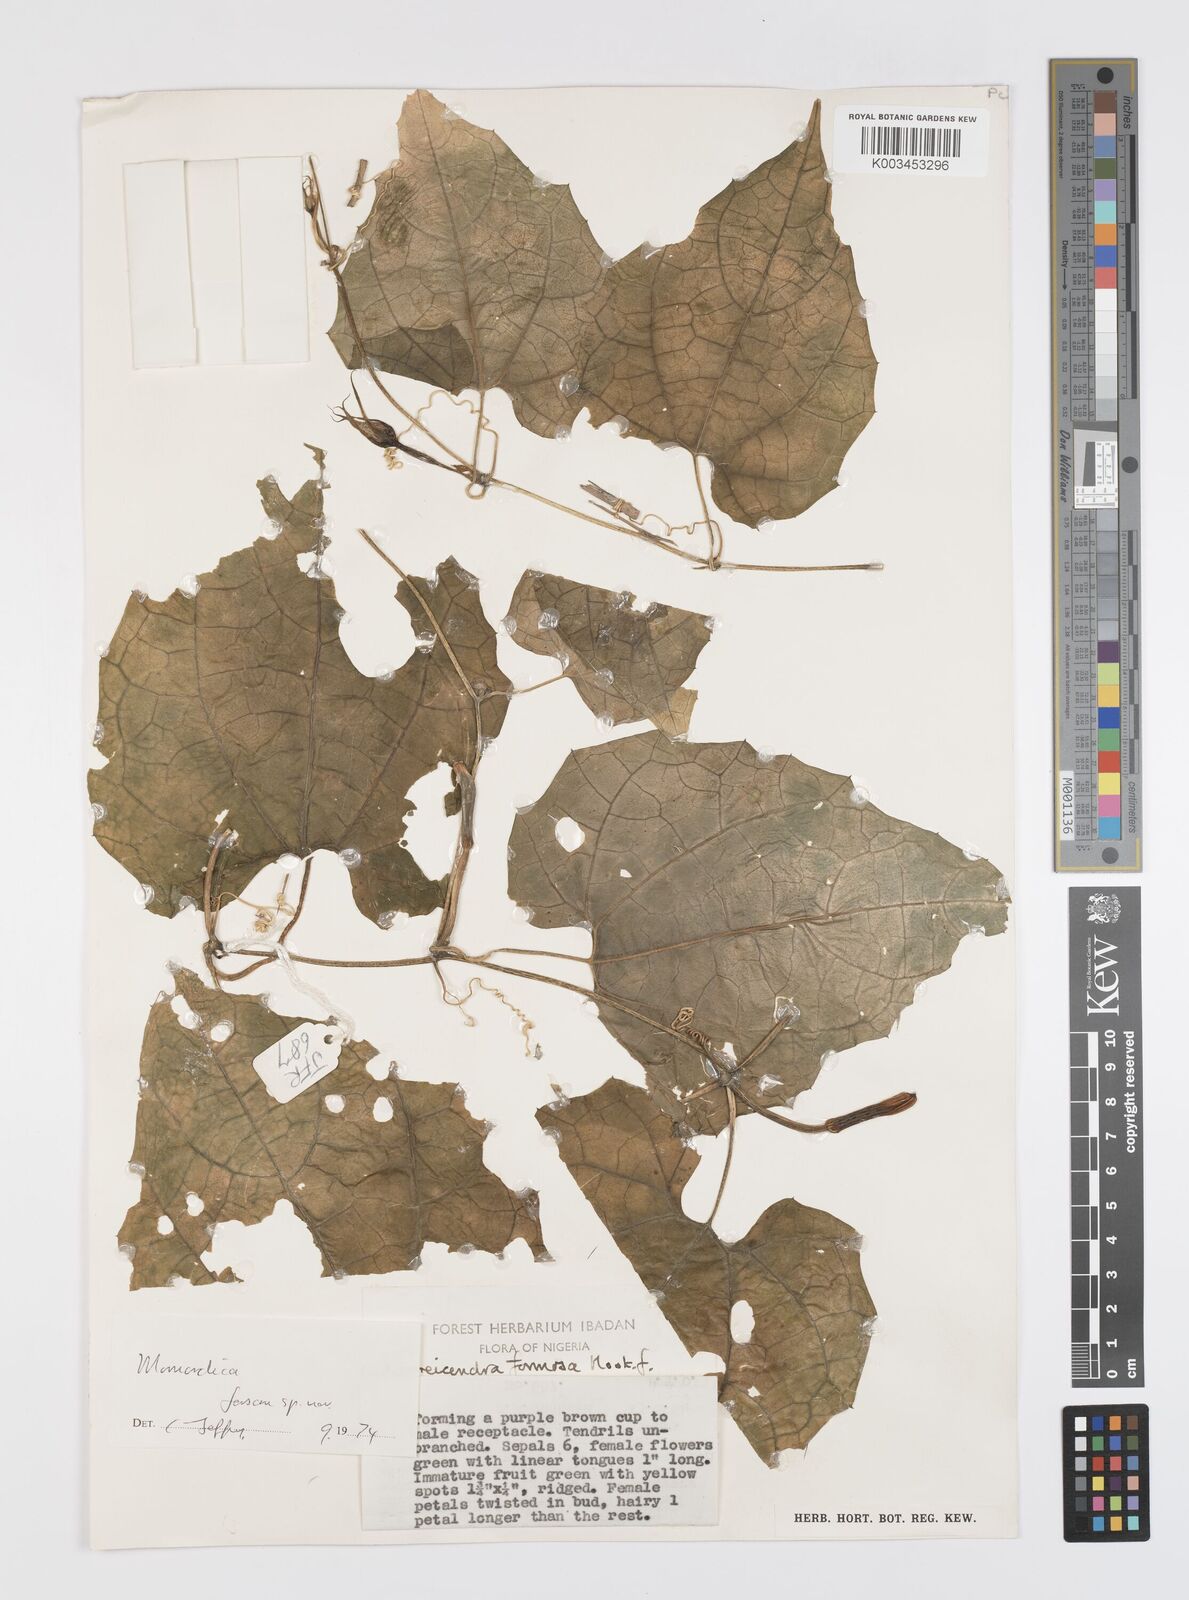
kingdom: Plantae
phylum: Tracheophyta
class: Magnoliopsida
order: Cucurbitales
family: Cucurbitaceae
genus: Momordica
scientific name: Momordica
